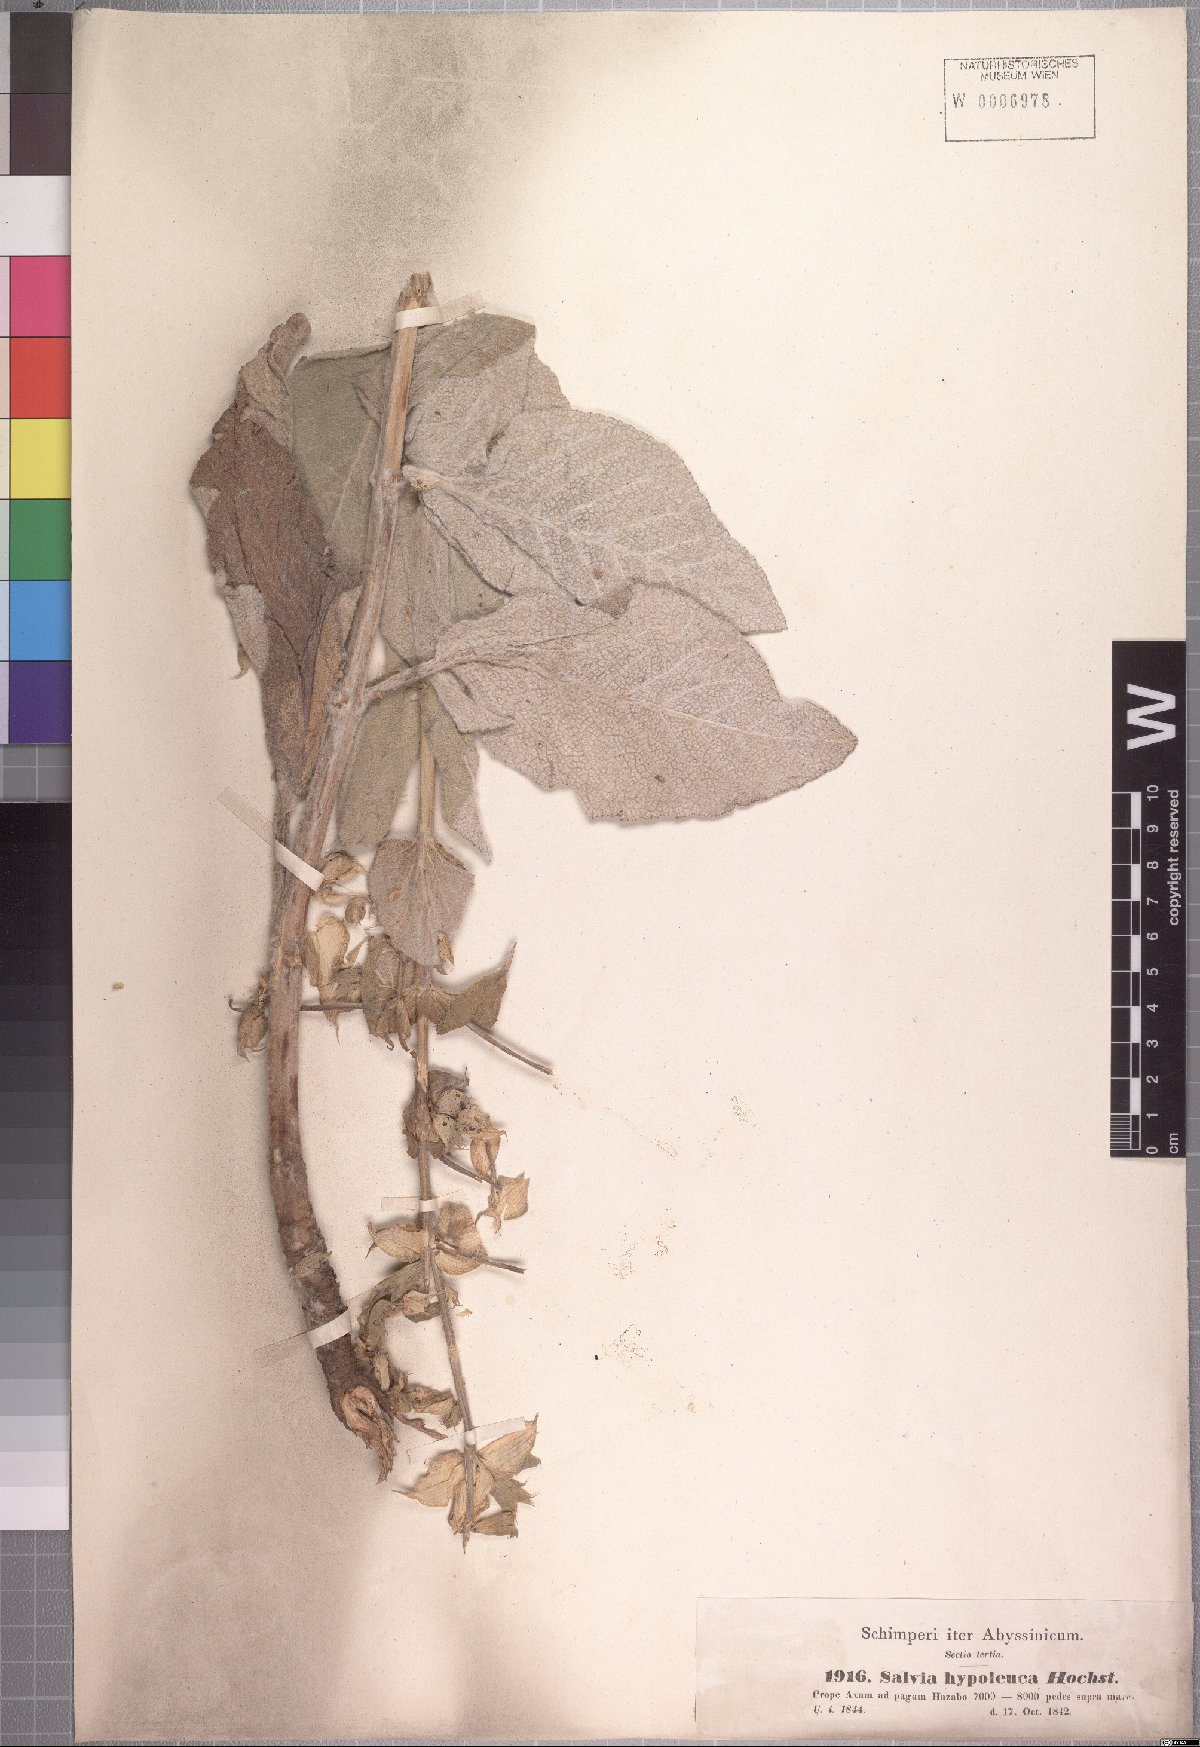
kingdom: Plantae
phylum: Tracheophyta
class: Magnoliopsida
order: Lamiales
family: Lamiaceae
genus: Salvia
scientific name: Salvia schimperi
